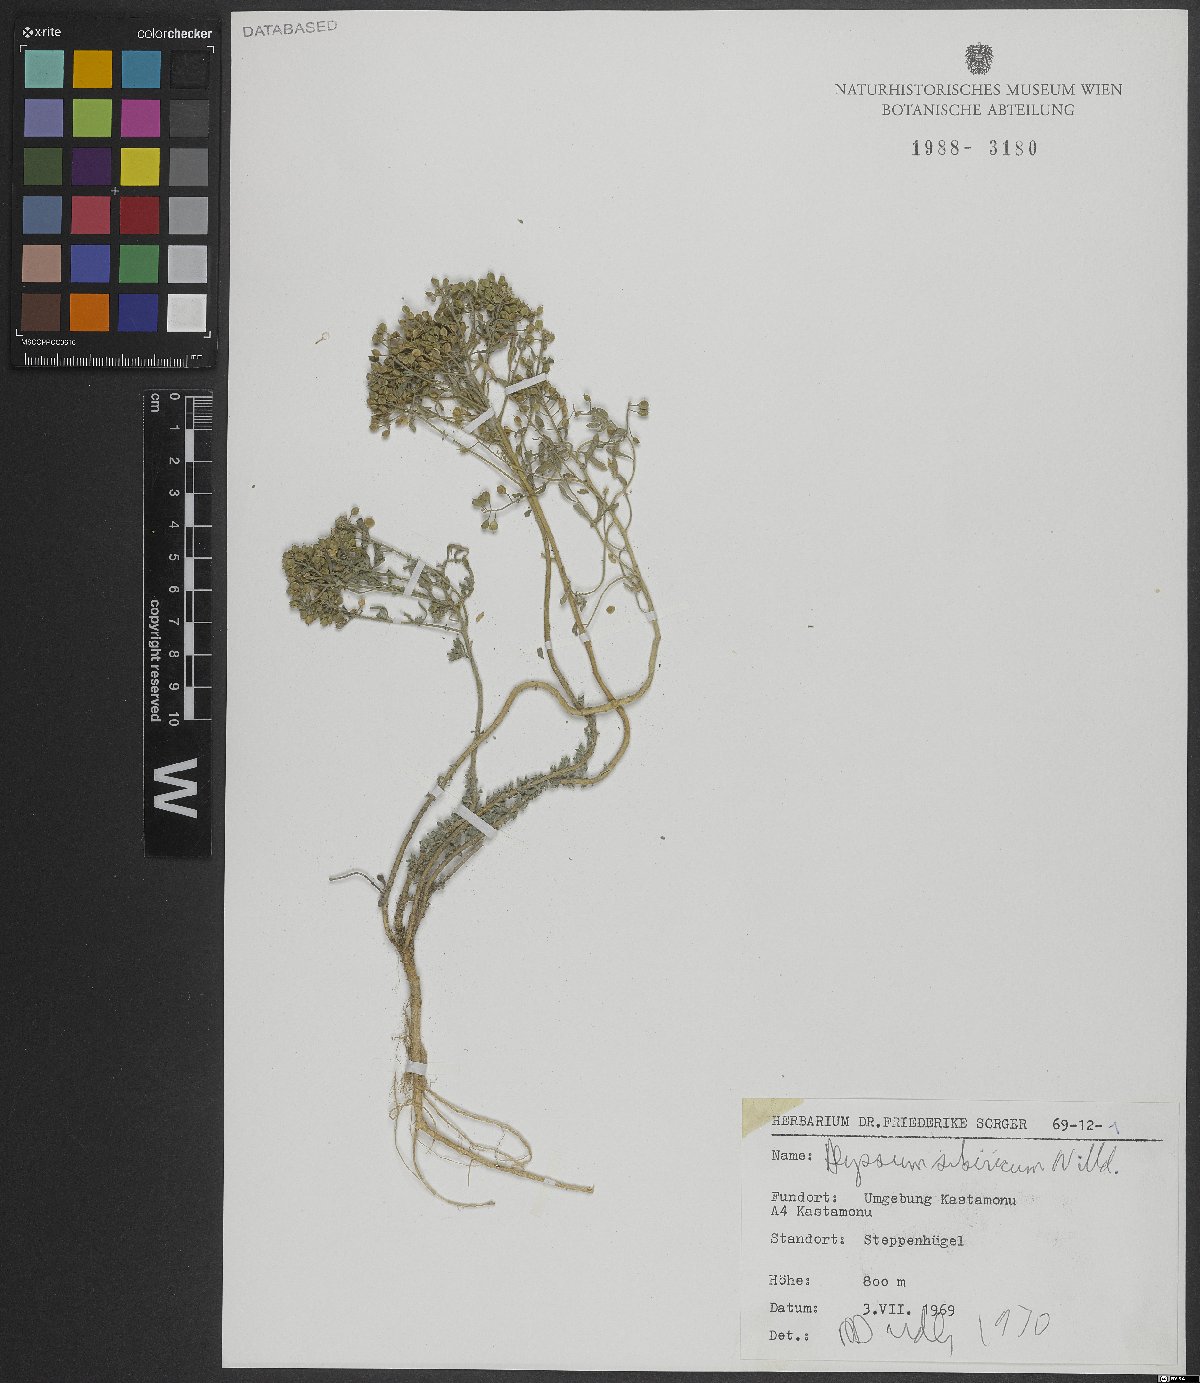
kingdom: Plantae
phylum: Tracheophyta
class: Magnoliopsida
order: Brassicales
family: Brassicaceae
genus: Odontarrhena
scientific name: Odontarrhena sibirica
